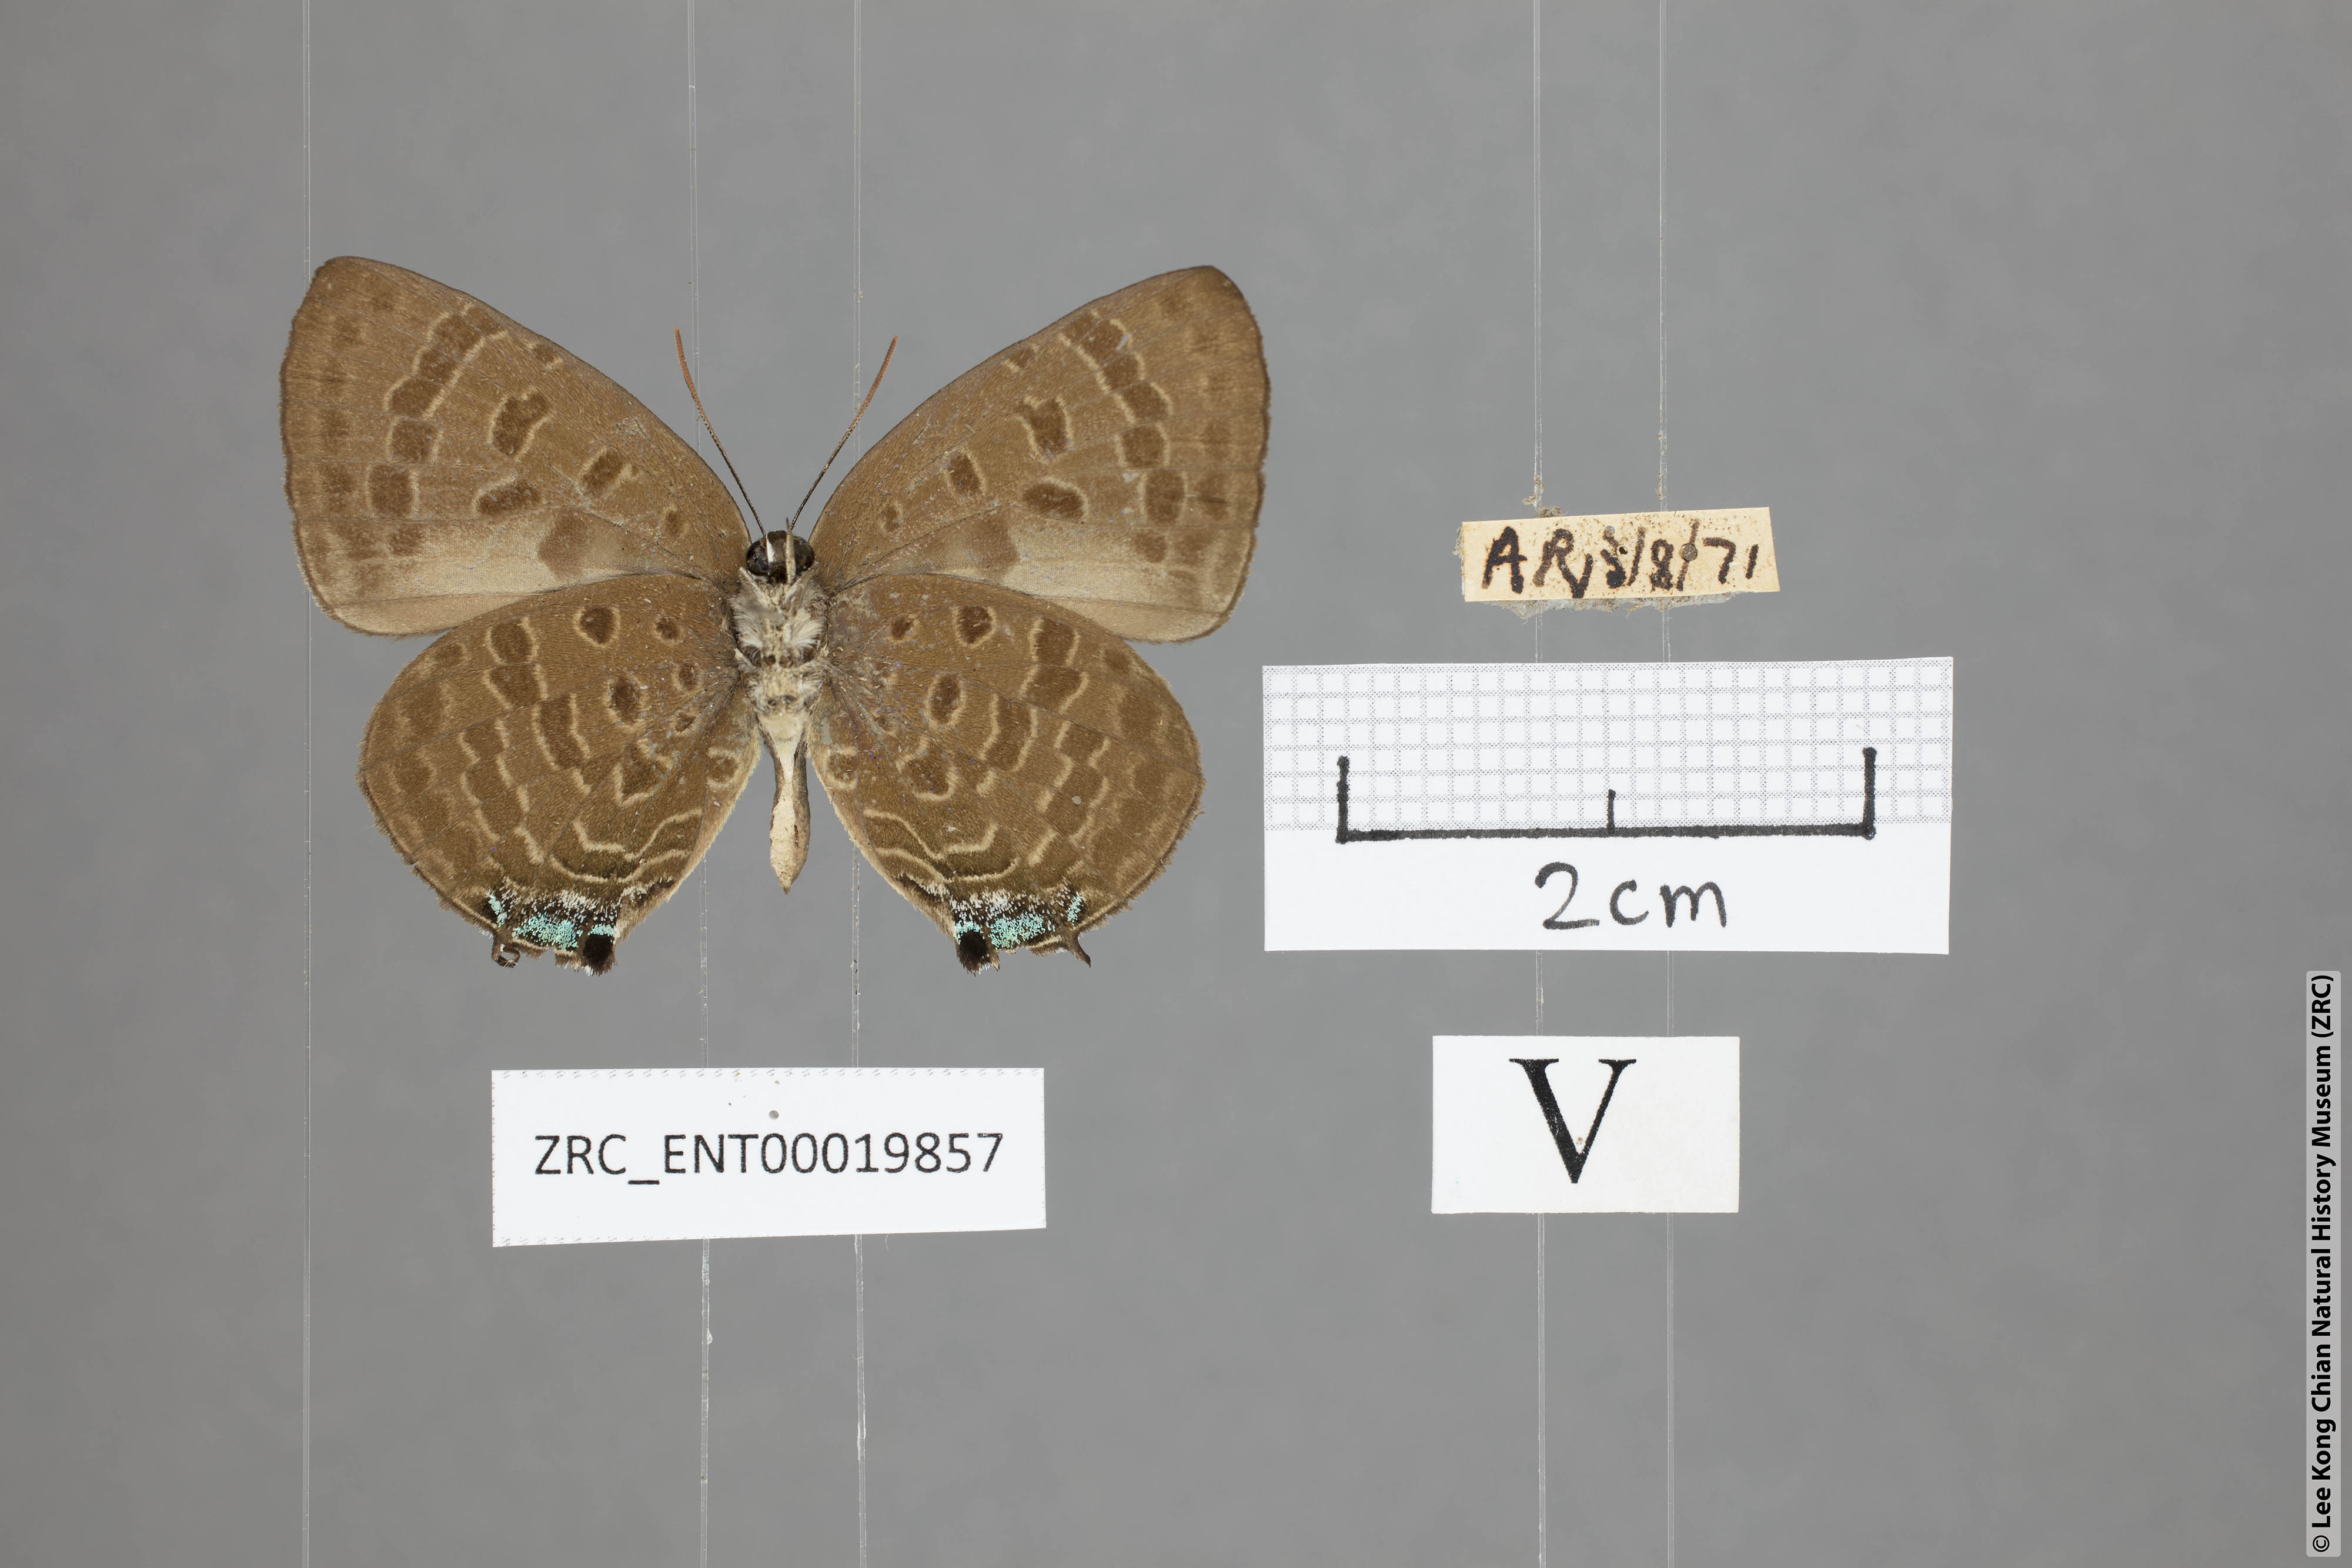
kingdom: Animalia
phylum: Arthropoda
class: Insecta
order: Lepidoptera
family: Lycaenidae
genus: Arhopala
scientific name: Arhopala sublustris
